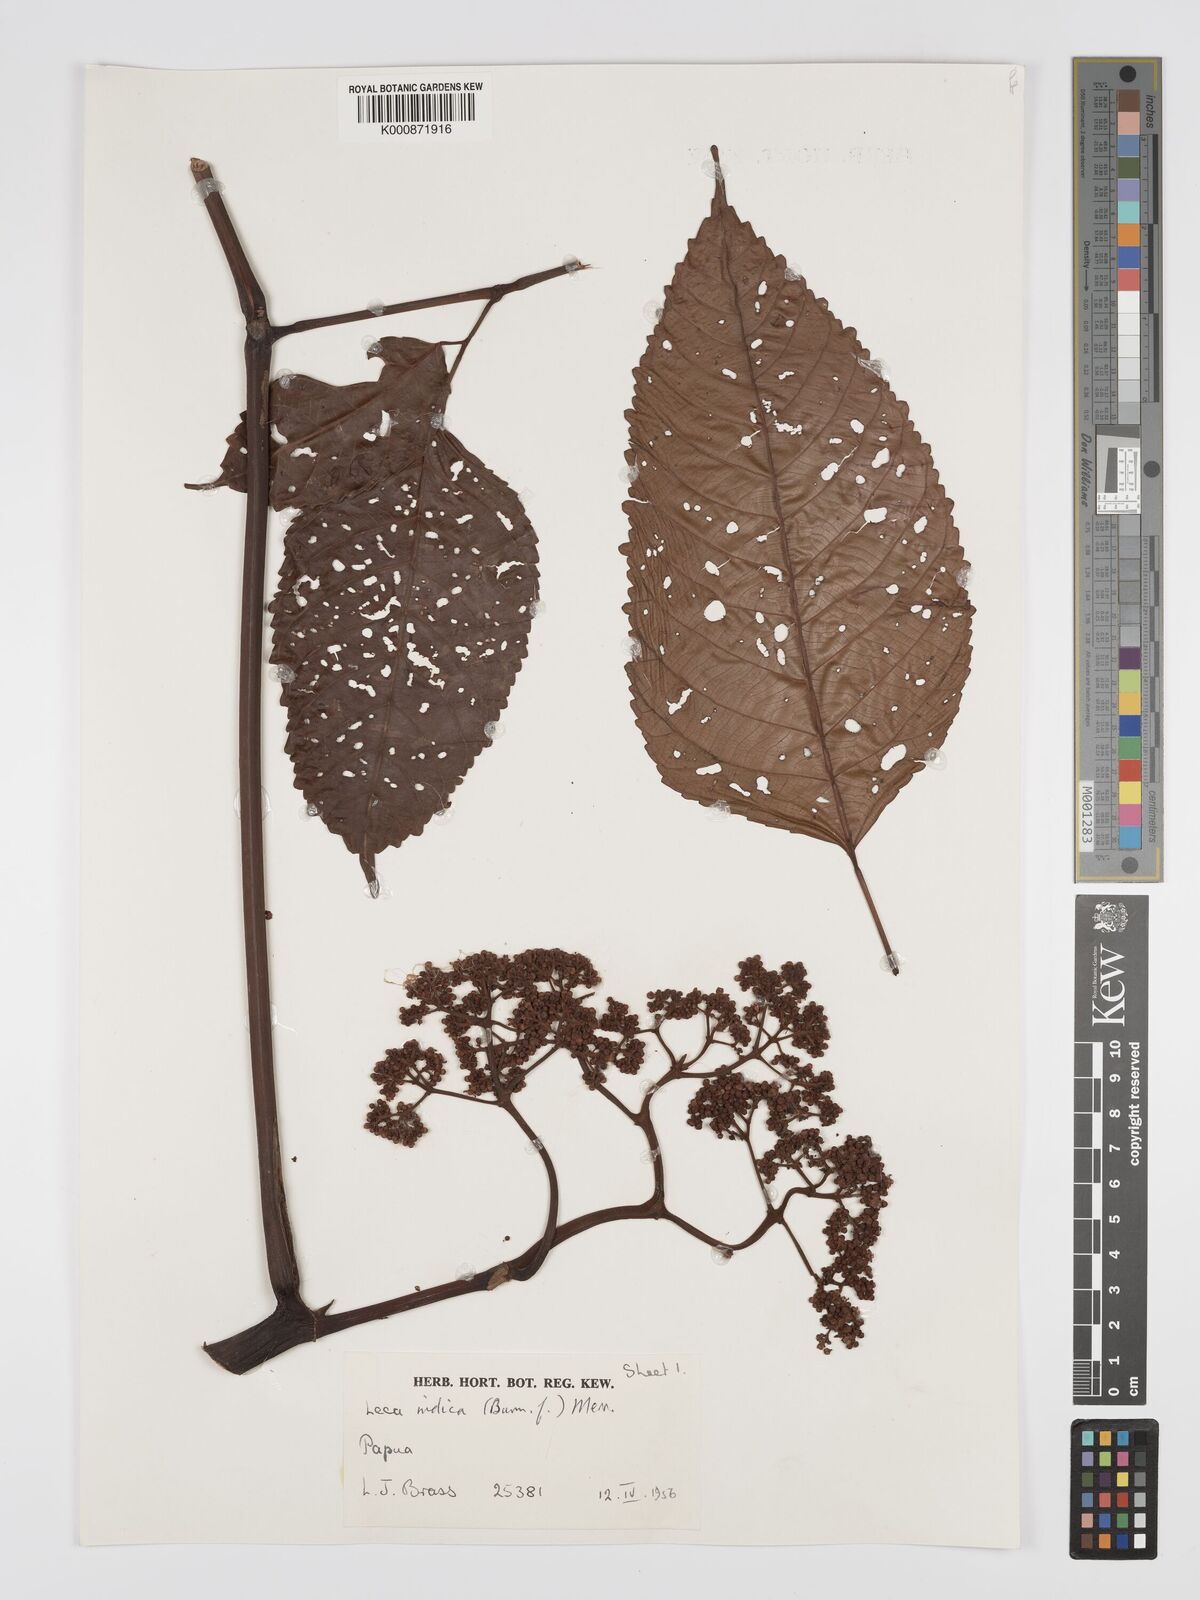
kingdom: Plantae
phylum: Tracheophyta
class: Magnoliopsida
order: Vitales
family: Vitaceae
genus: Leea
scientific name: Leea indica
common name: Bandicoot-berry
